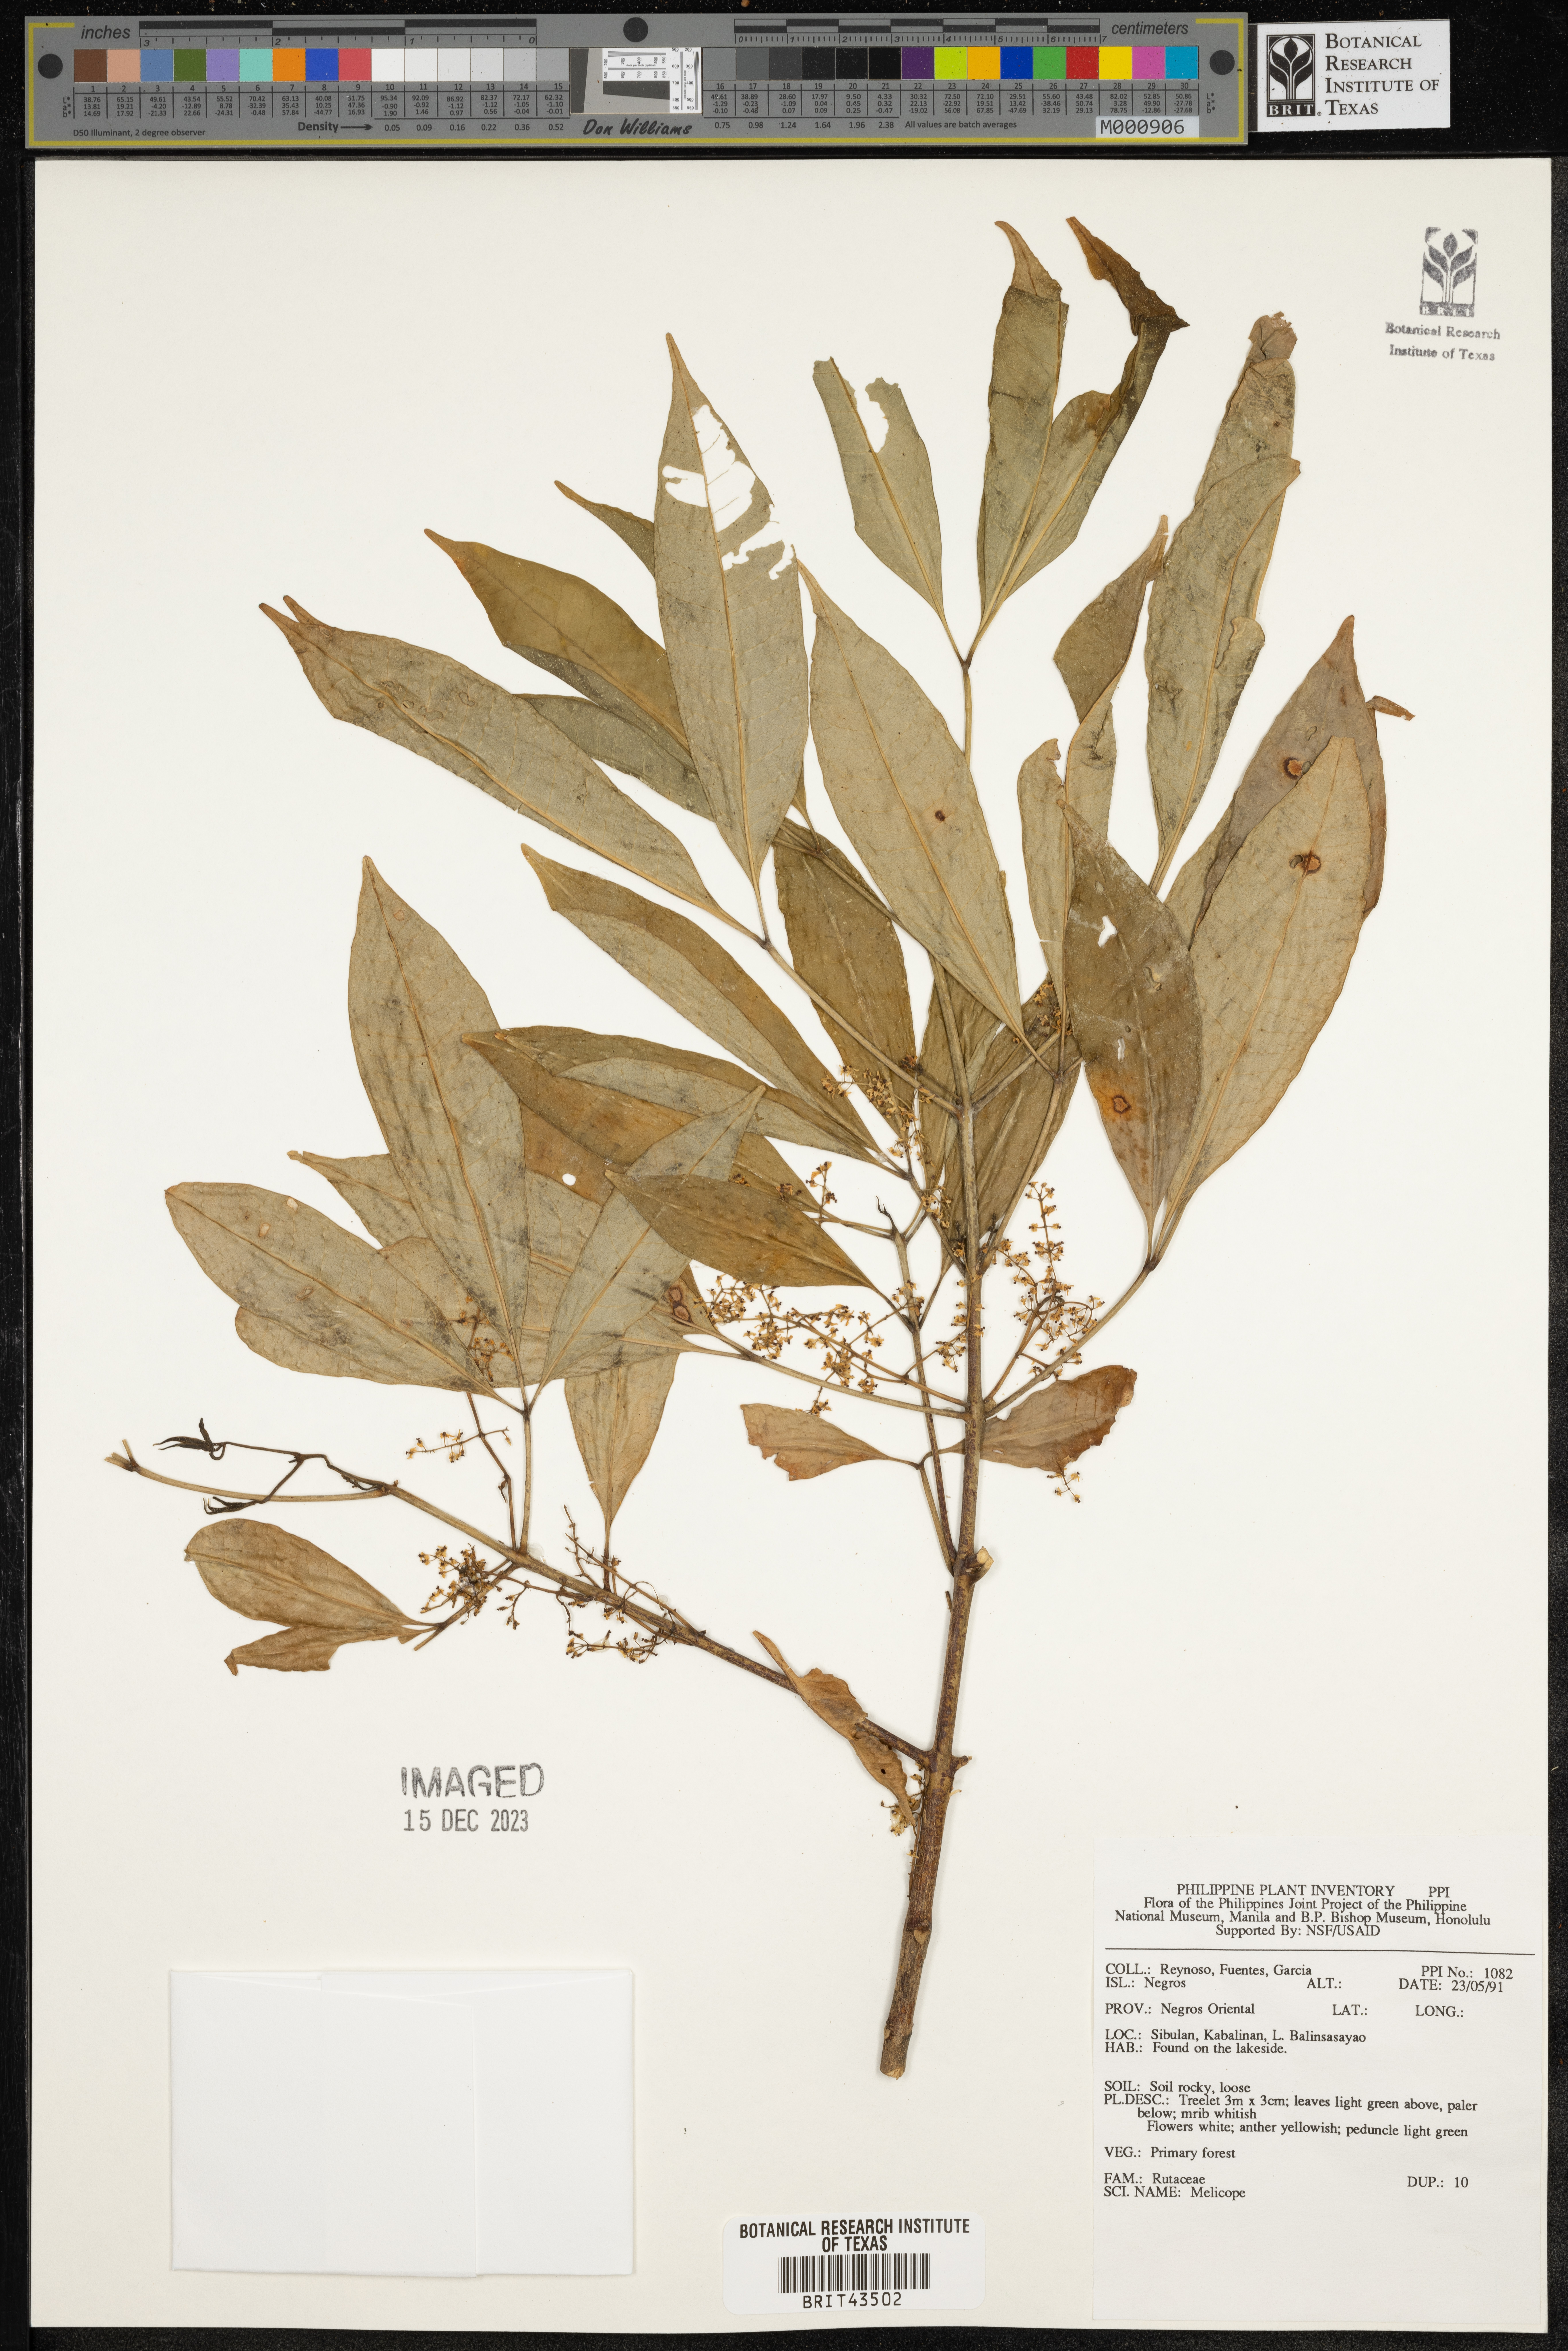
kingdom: Plantae
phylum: Tracheophyta
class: Magnoliopsida
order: Sapindales
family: Rutaceae
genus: Melicope
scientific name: Melicope
